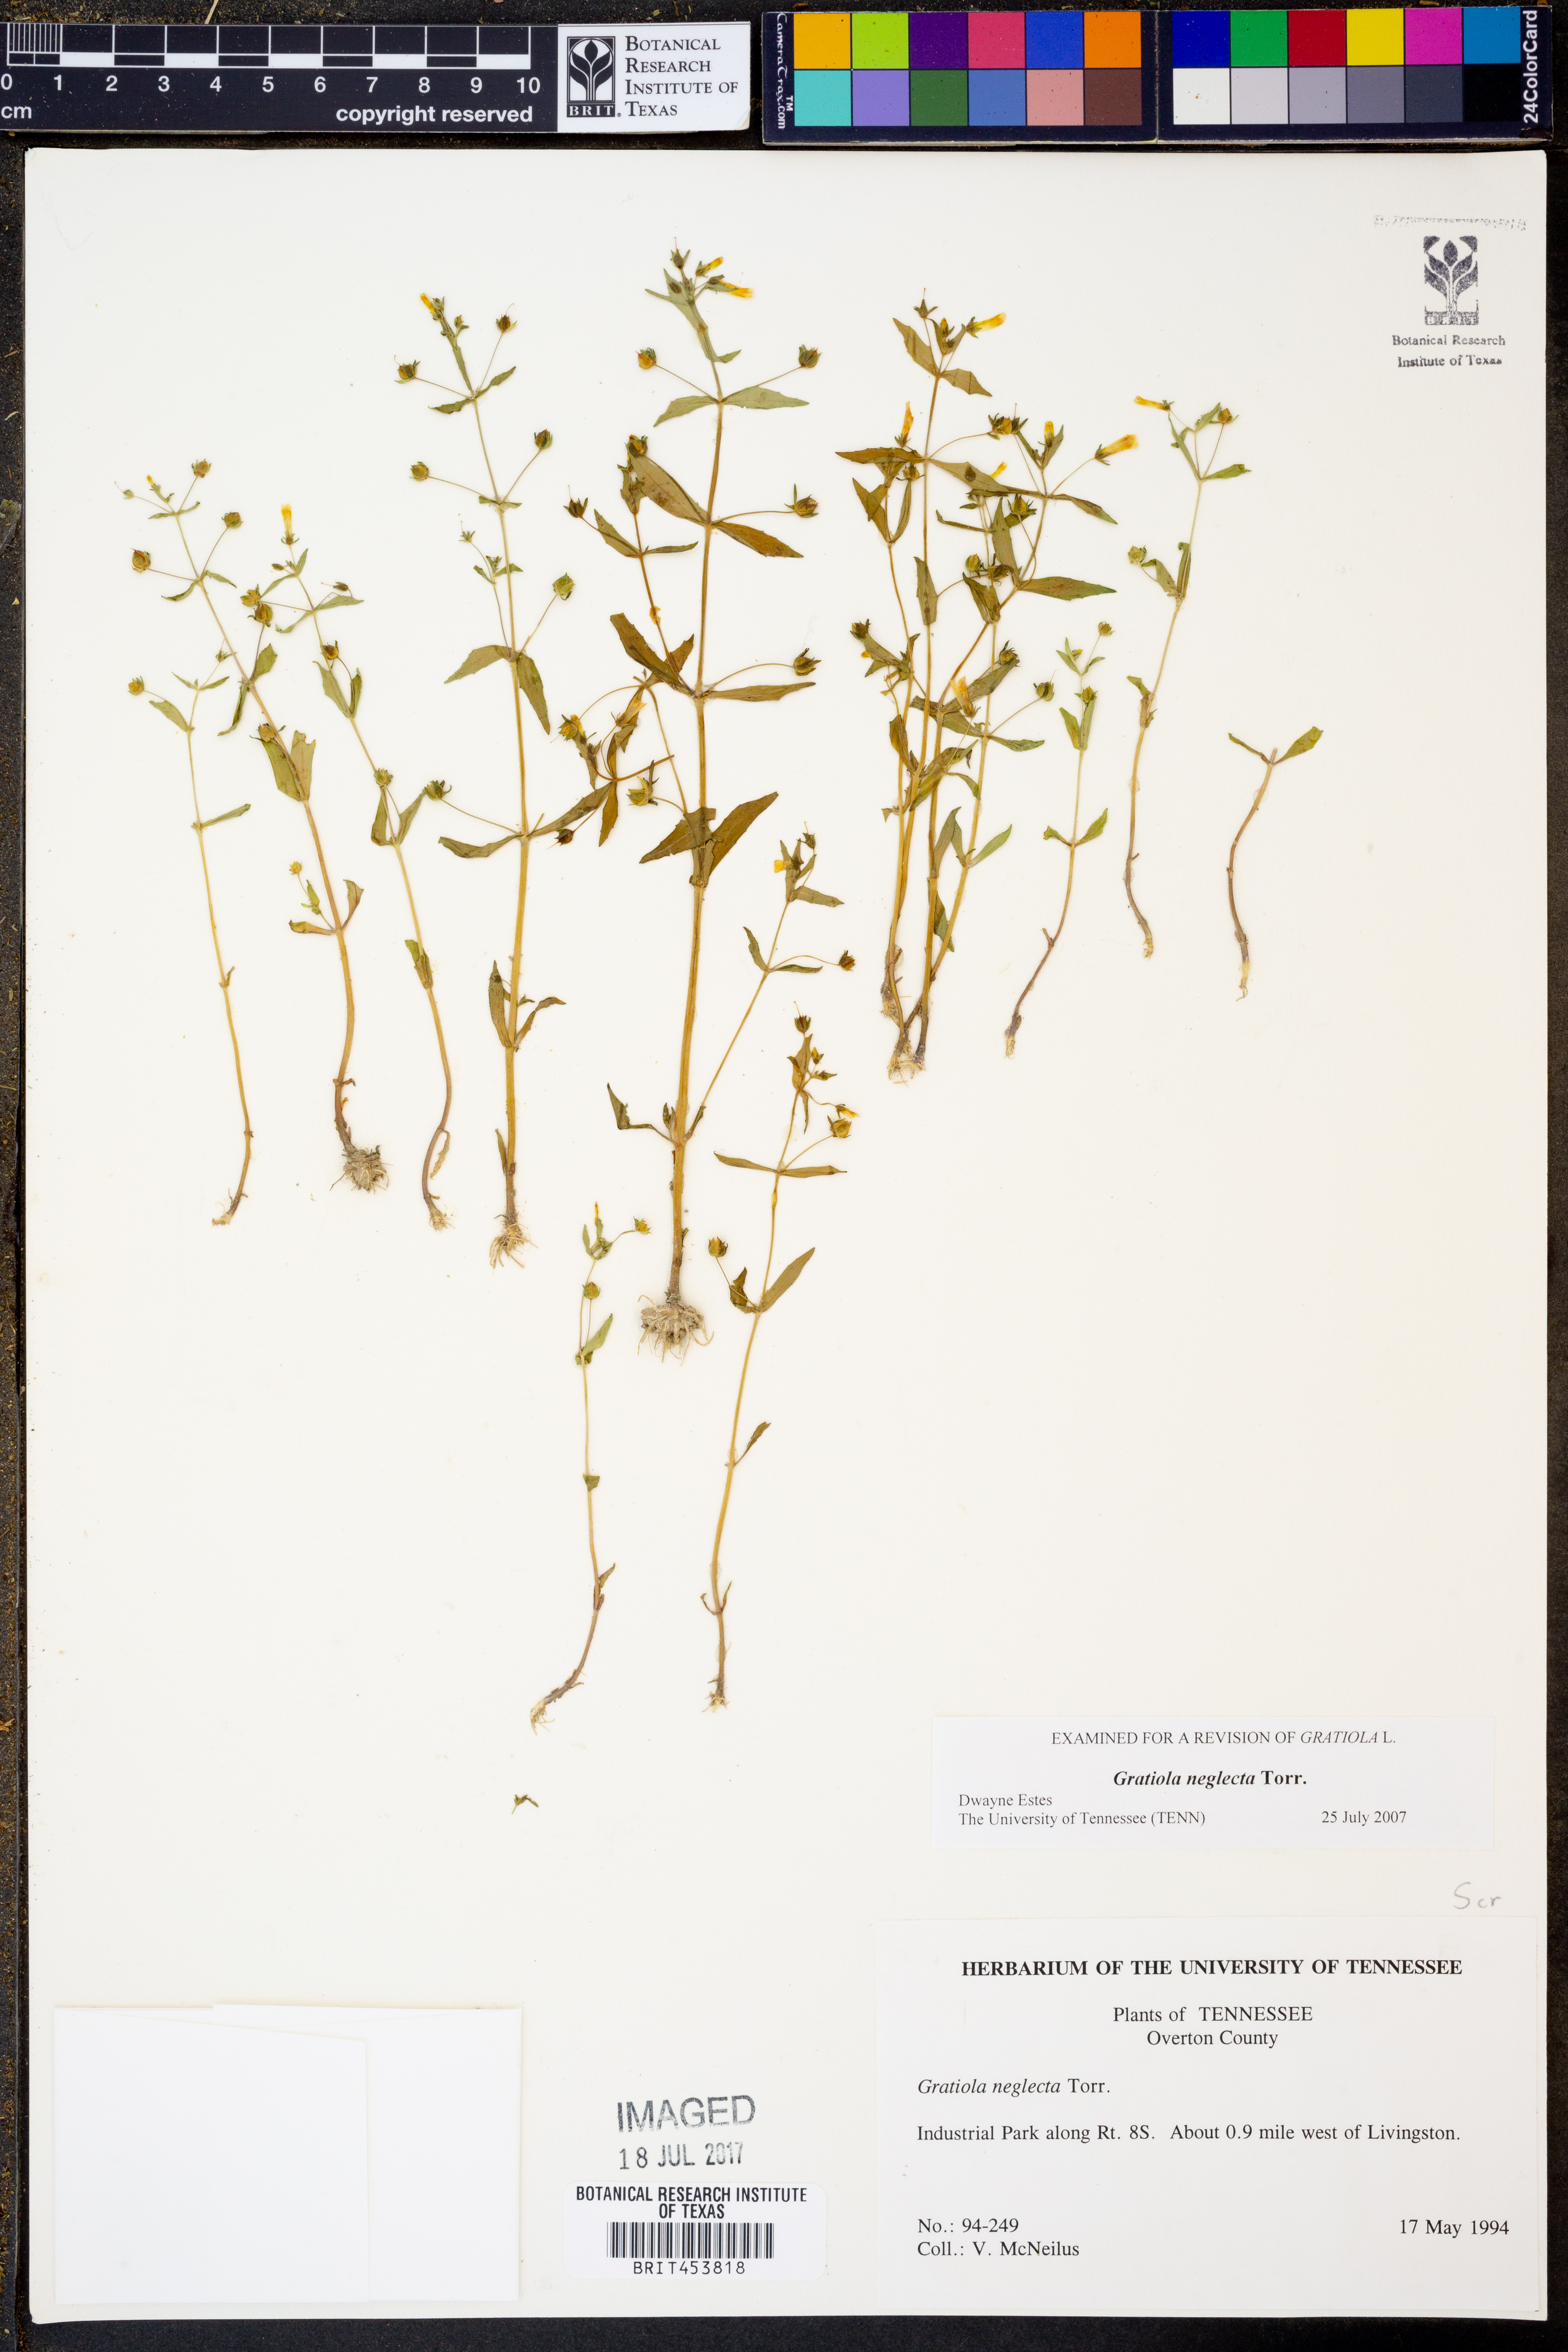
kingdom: Plantae
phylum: Tracheophyta
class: Magnoliopsida
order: Lamiales
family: Plantaginaceae
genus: Gratiola
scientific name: Gratiola neglecta
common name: American hedge-hyssop
